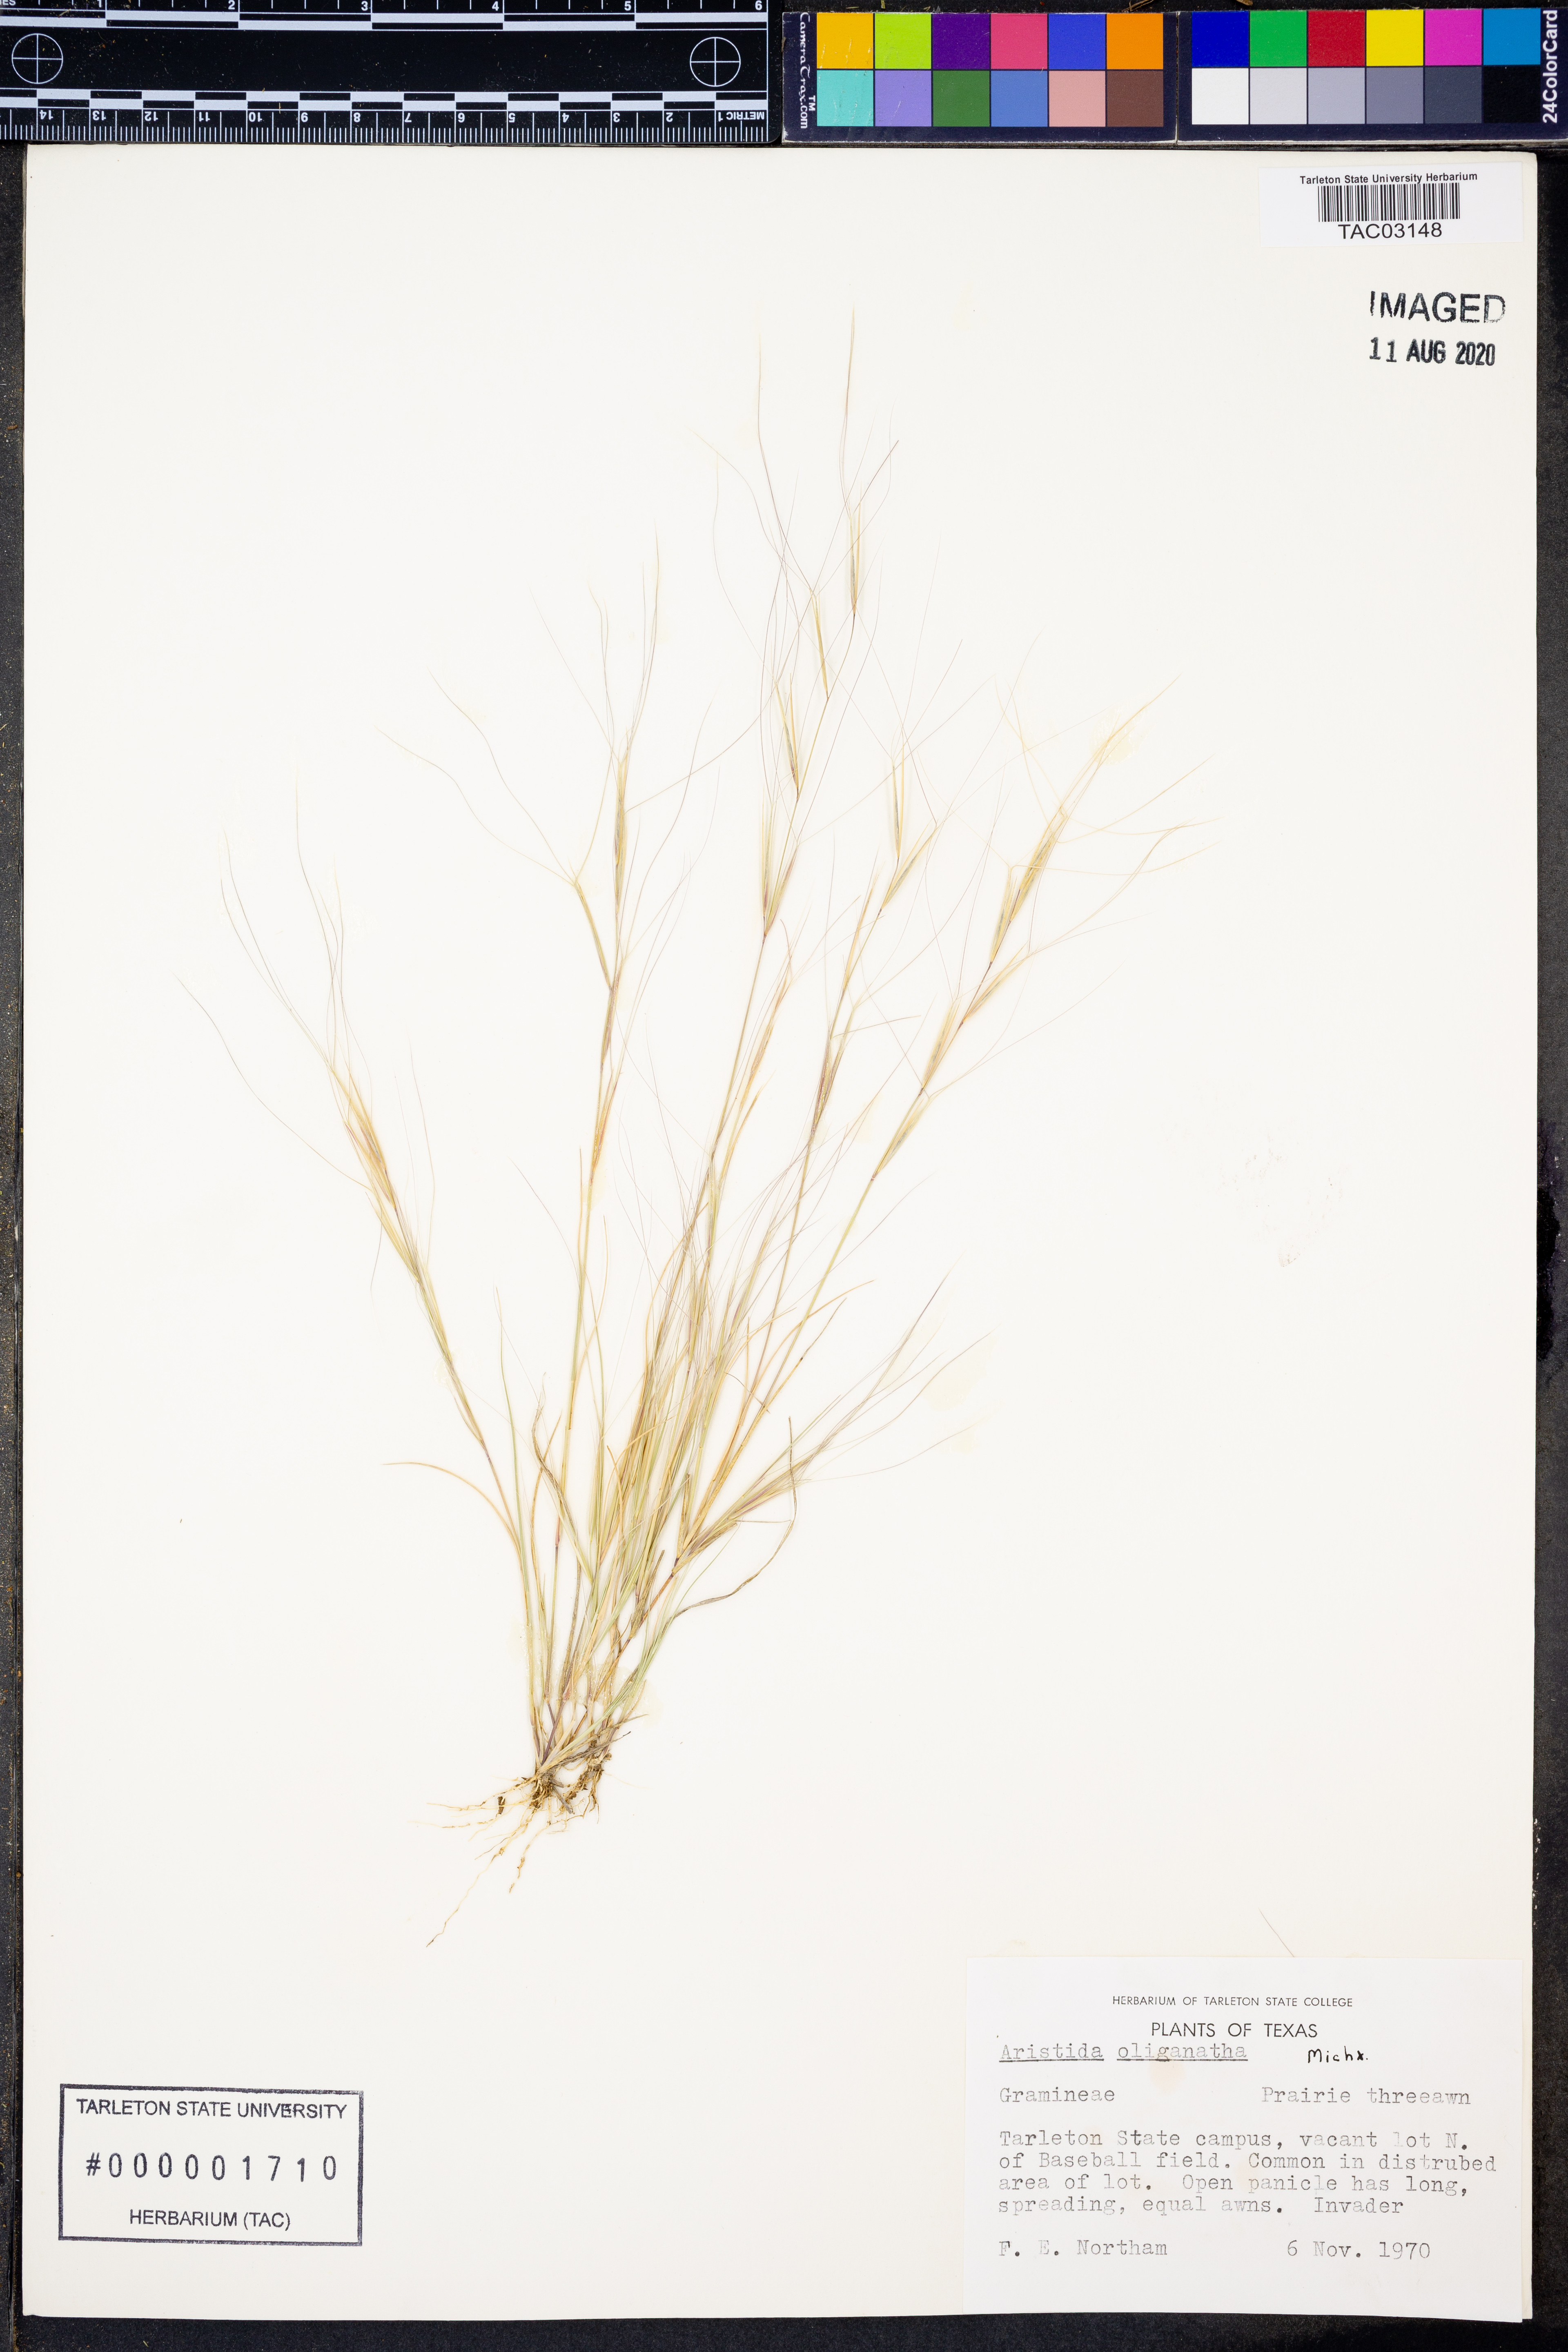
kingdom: Plantae
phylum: Tracheophyta
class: Liliopsida
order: Poales
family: Poaceae
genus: Aristida
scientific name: Aristida oligantha
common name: Few-flowered aristida
